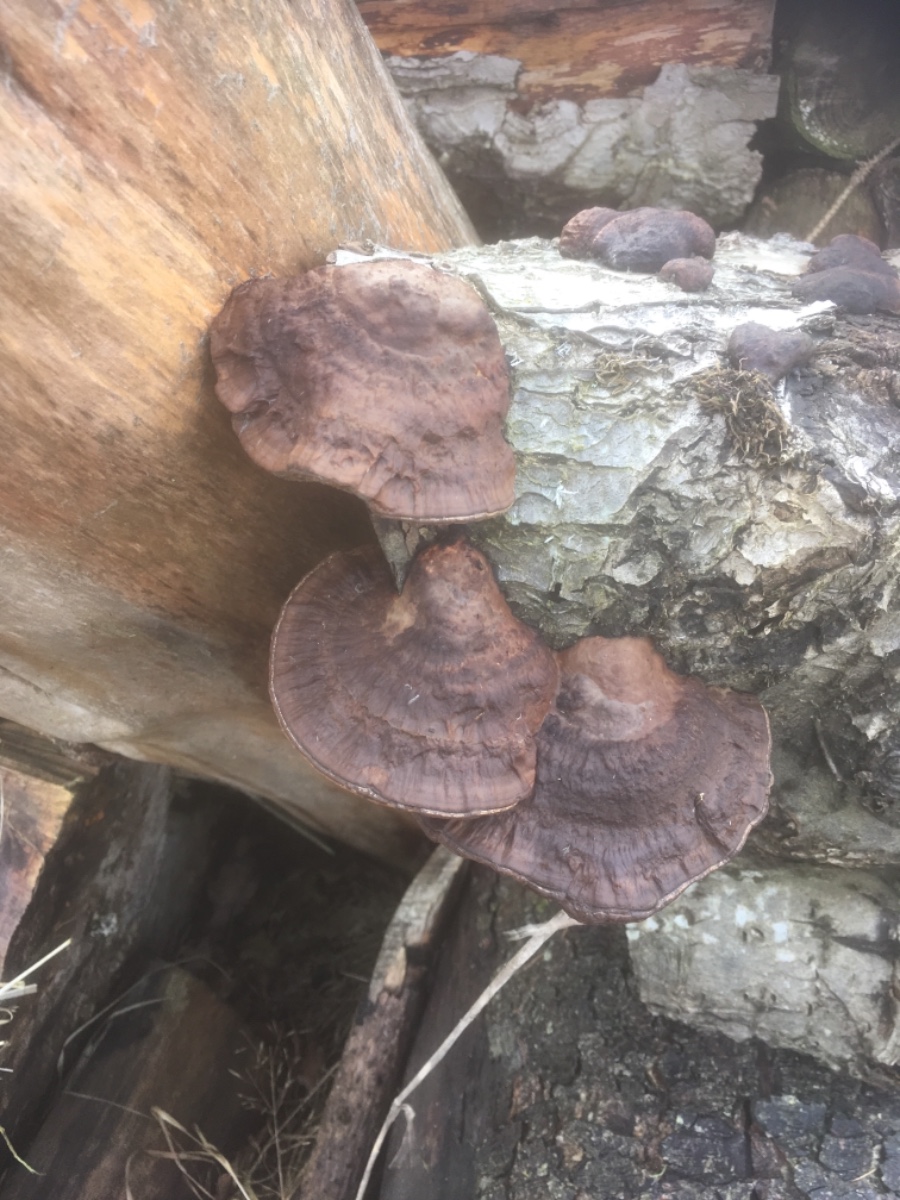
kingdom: Fungi
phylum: Basidiomycota
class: Agaricomycetes
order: Polyporales
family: Polyporaceae
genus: Daedaleopsis
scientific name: Daedaleopsis confragosa
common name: rødmende læderporesvamp
